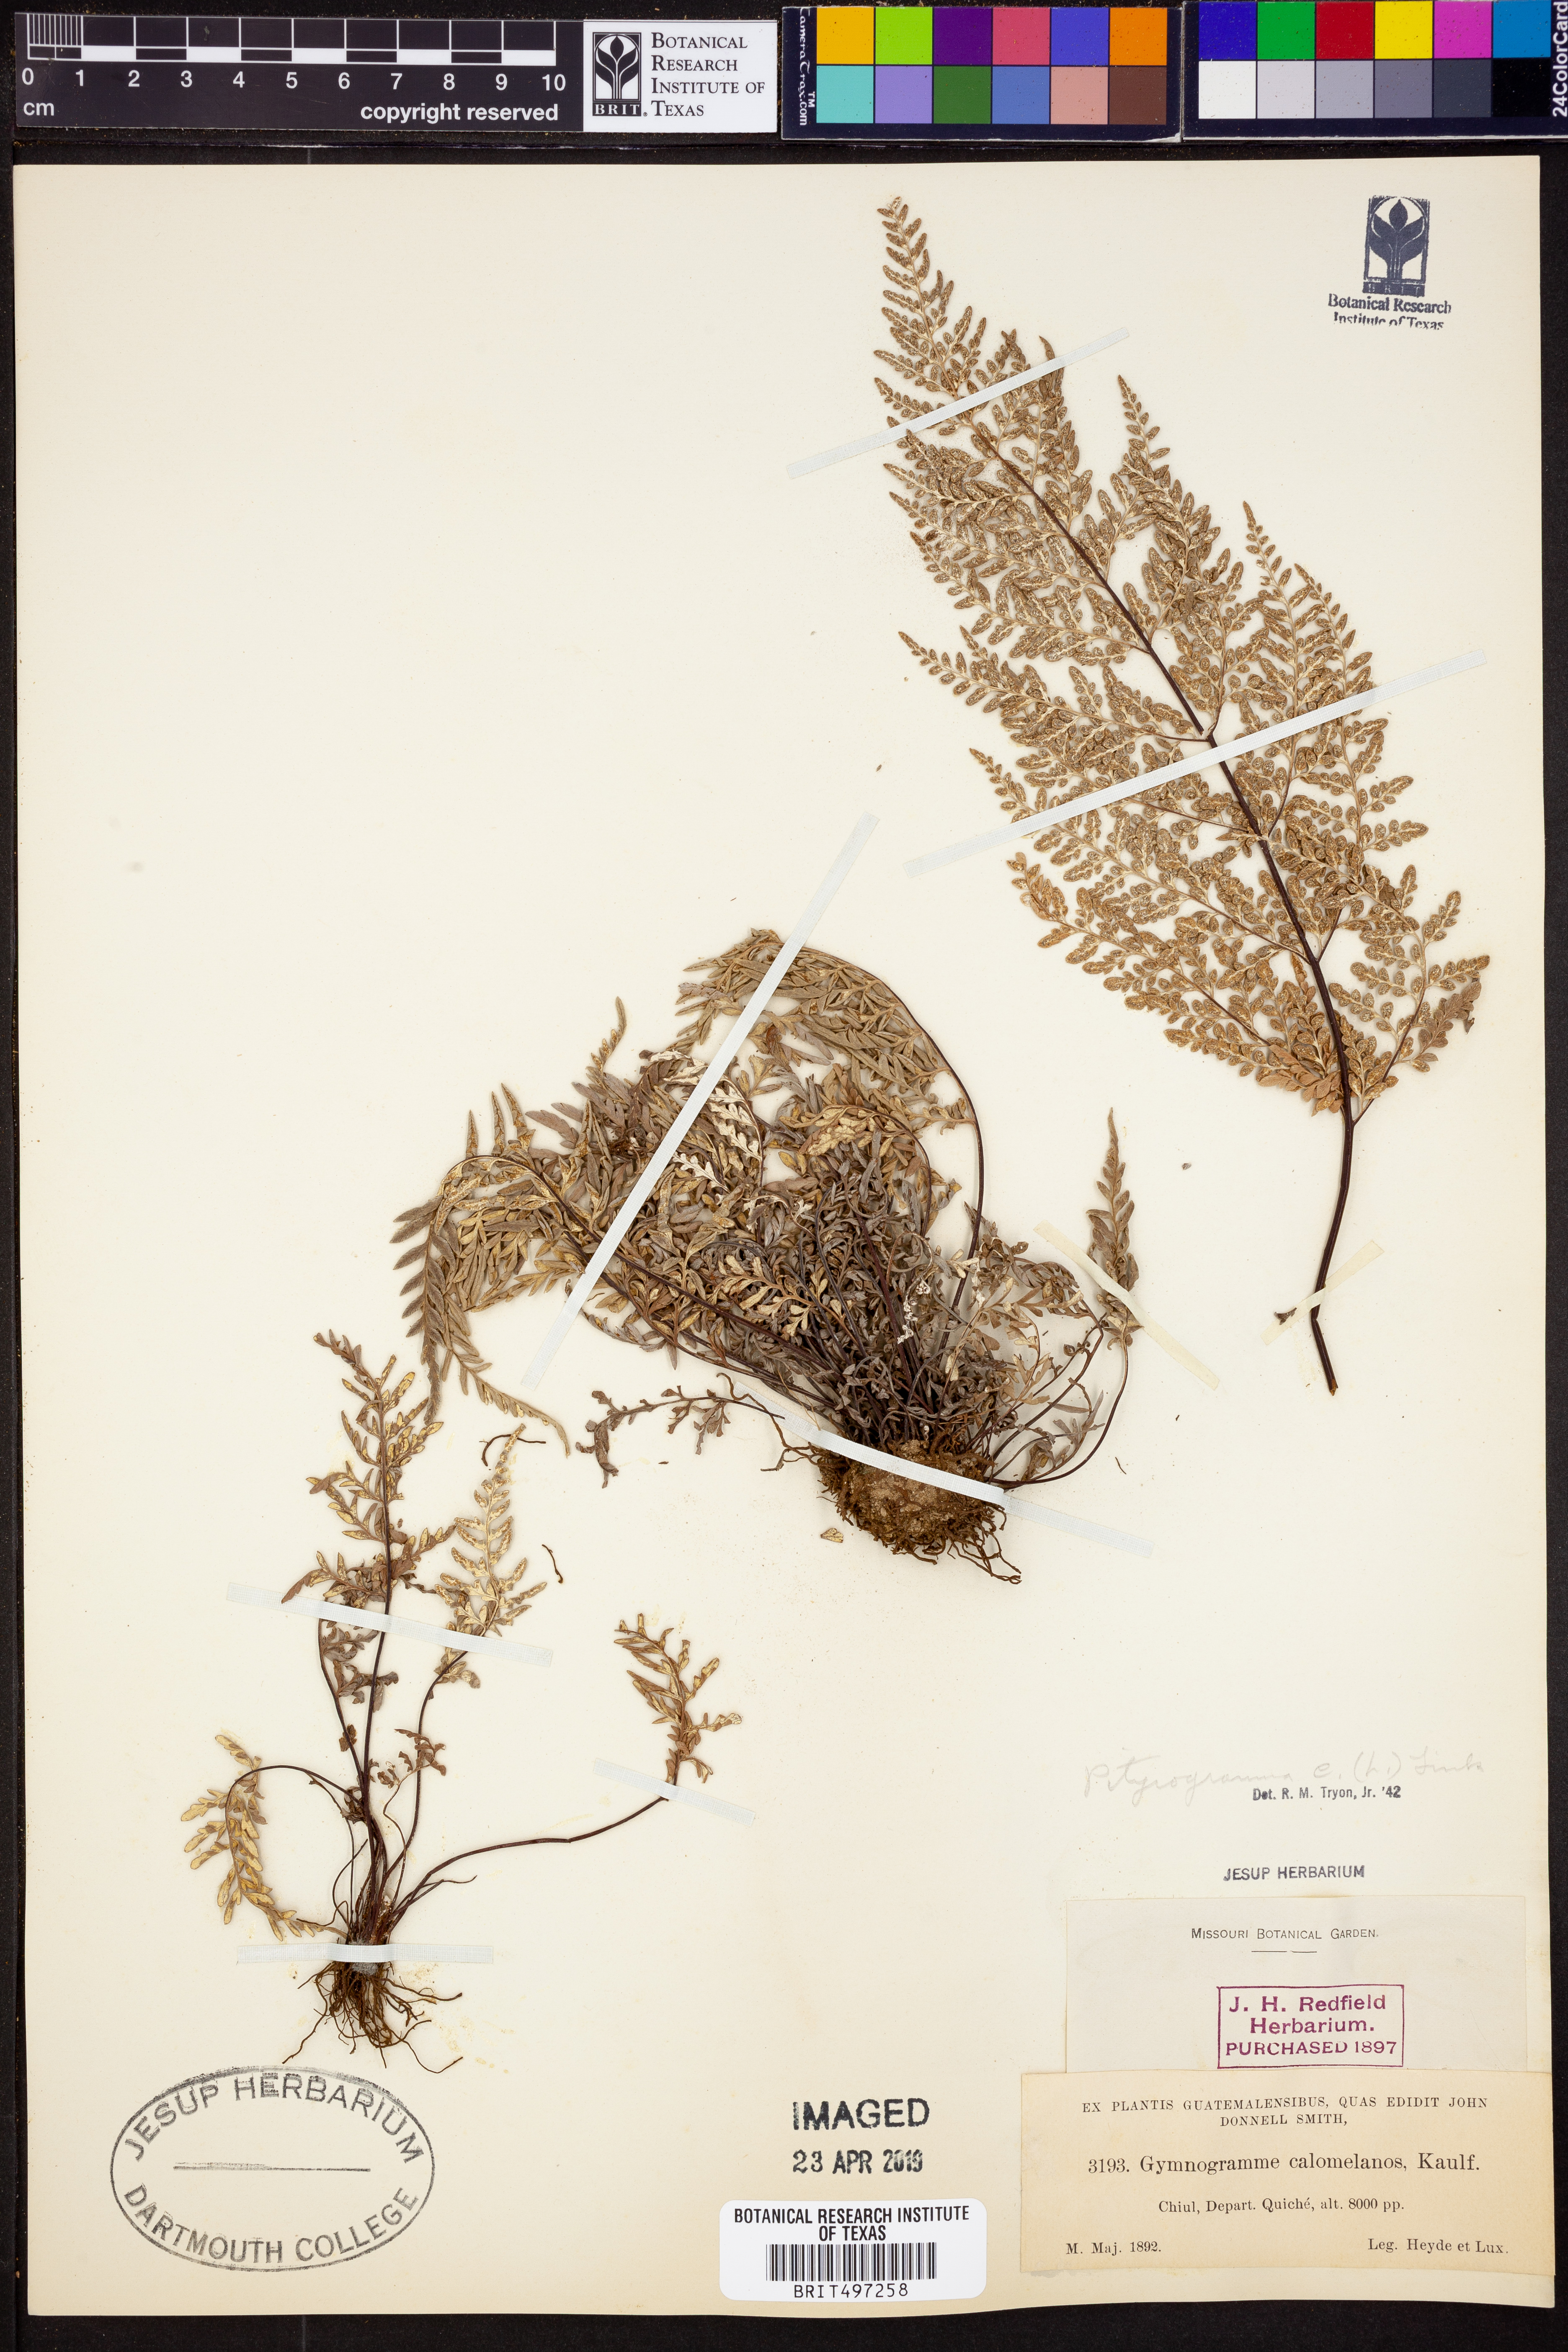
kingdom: Plantae
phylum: Tracheophyta
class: Polypodiopsida
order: Polypodiales
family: Pteridaceae
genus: Pityrogramma
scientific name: Pityrogramma calomelanos
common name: Dixie silverback fern
